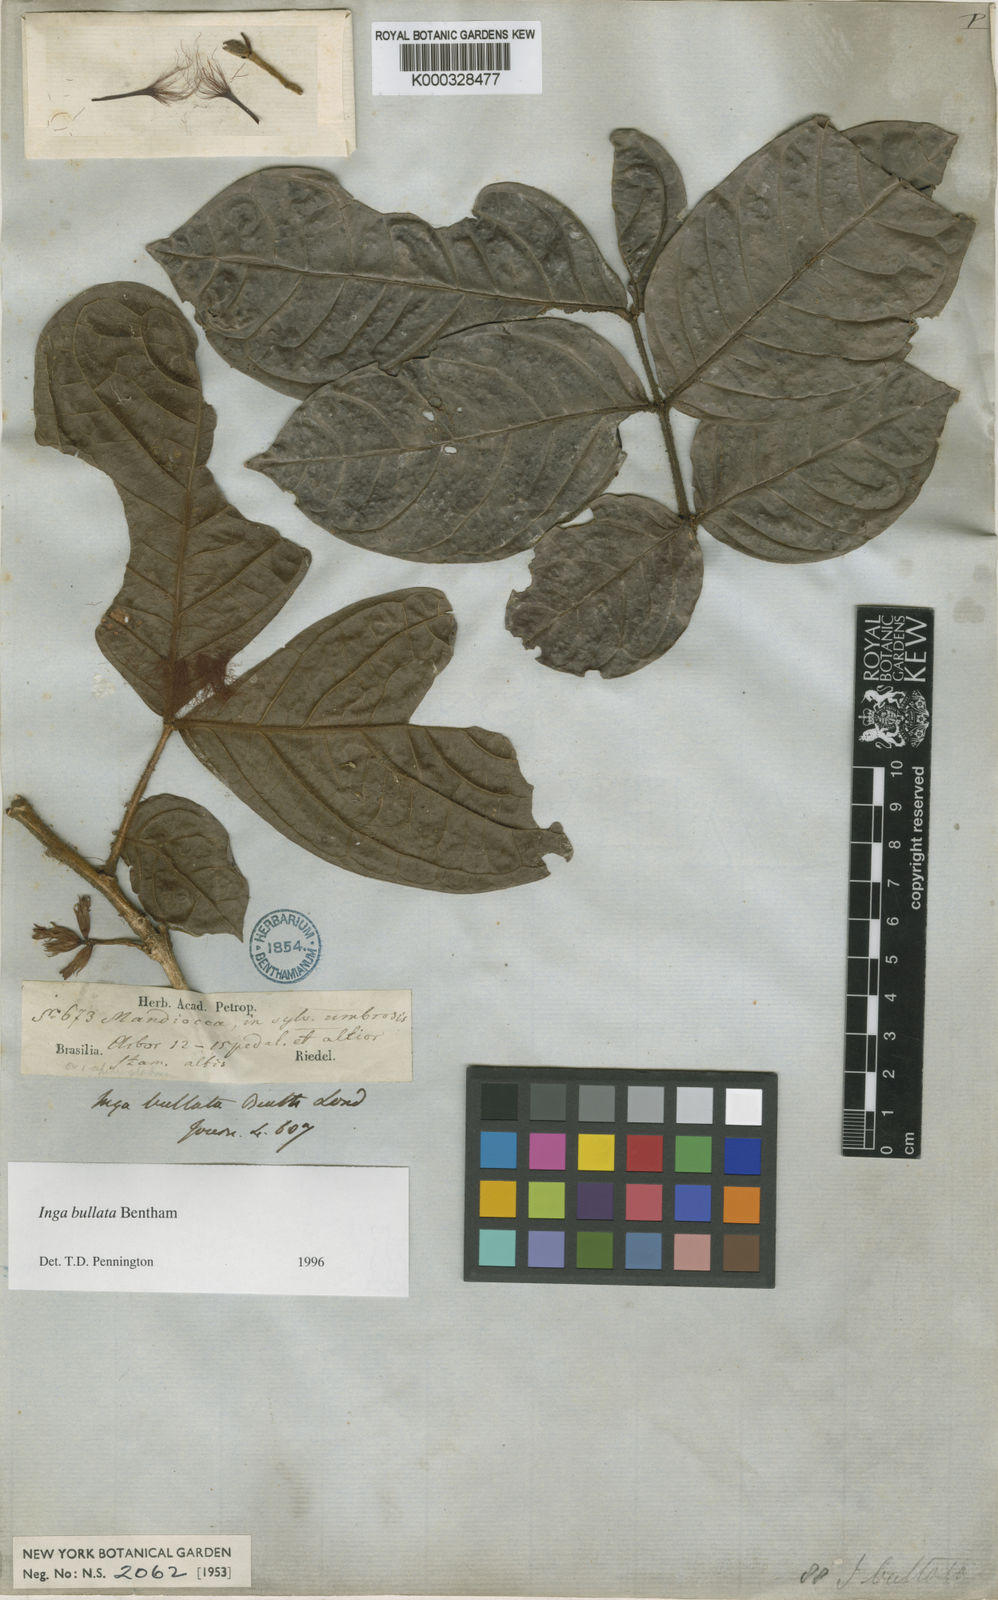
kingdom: Plantae
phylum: Tracheophyta
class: Magnoliopsida
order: Fabales
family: Fabaceae
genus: Inga
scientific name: Inga bullata
